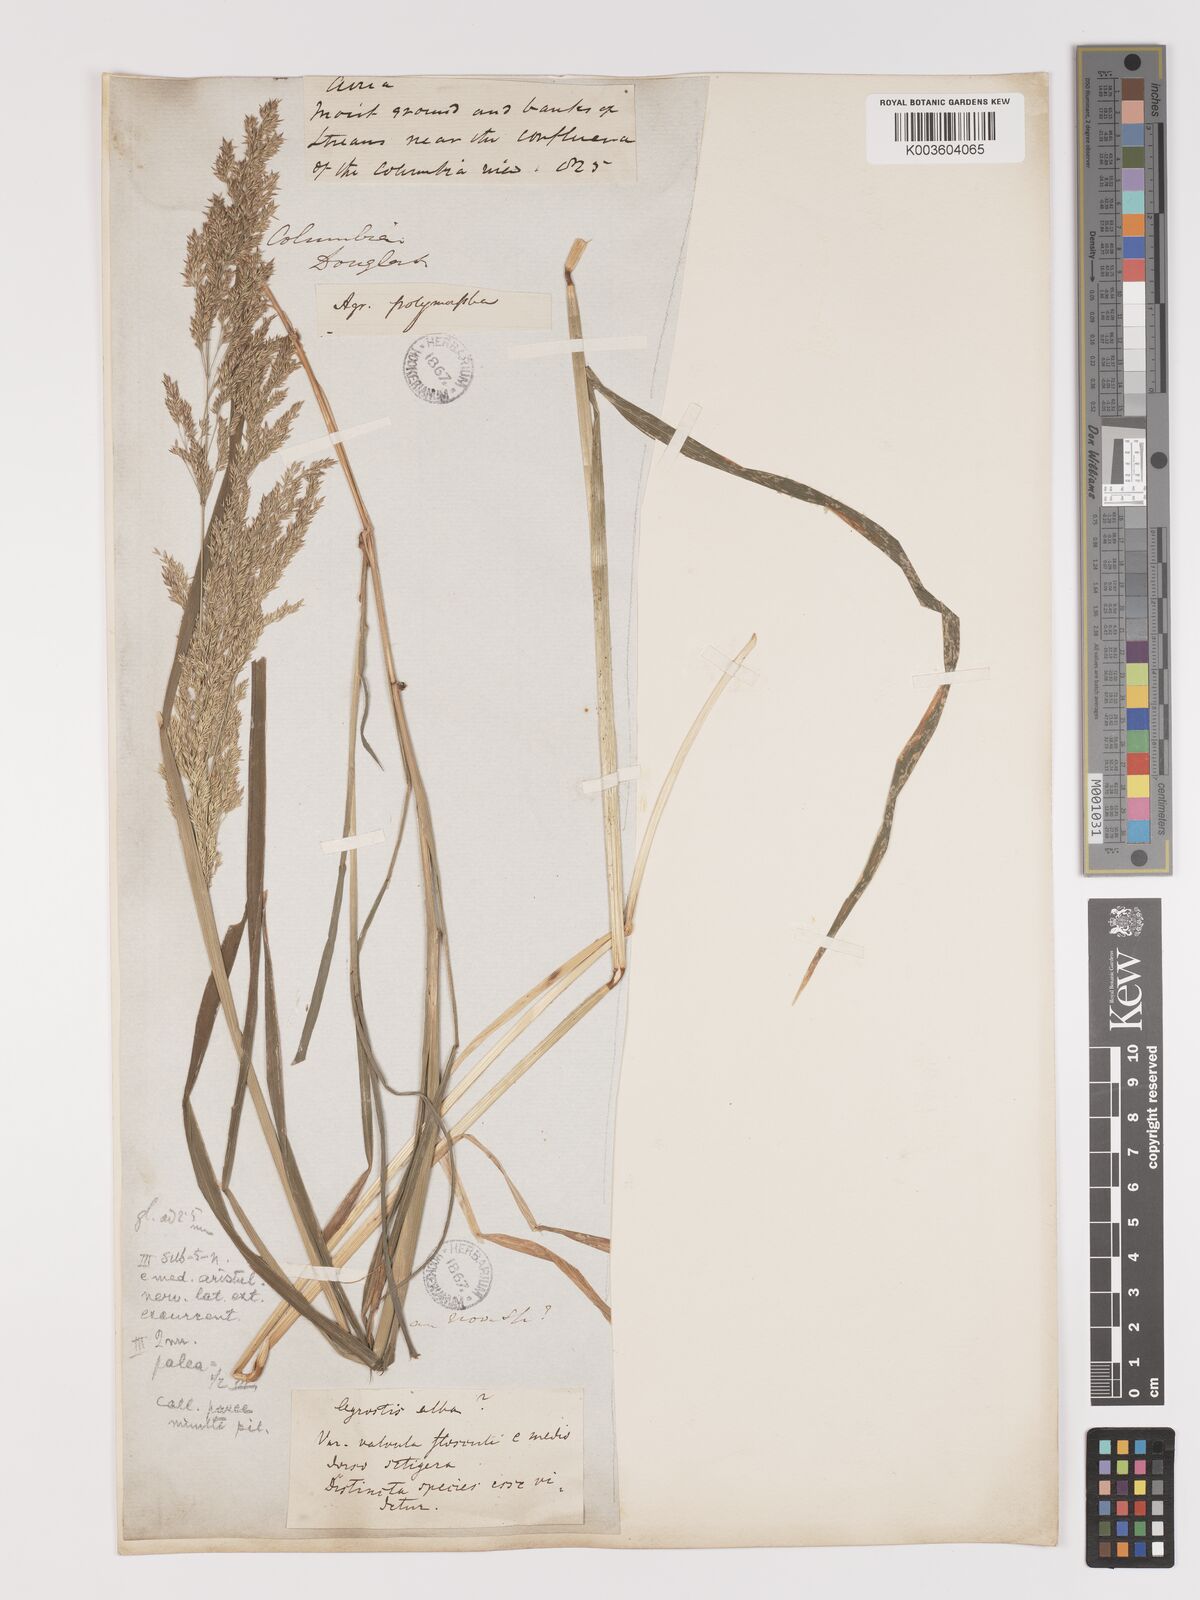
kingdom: Plantae
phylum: Tracheophyta
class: Liliopsida
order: Poales
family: Poaceae
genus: Agrostis
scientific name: Agrostis gigantea
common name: Black bent
